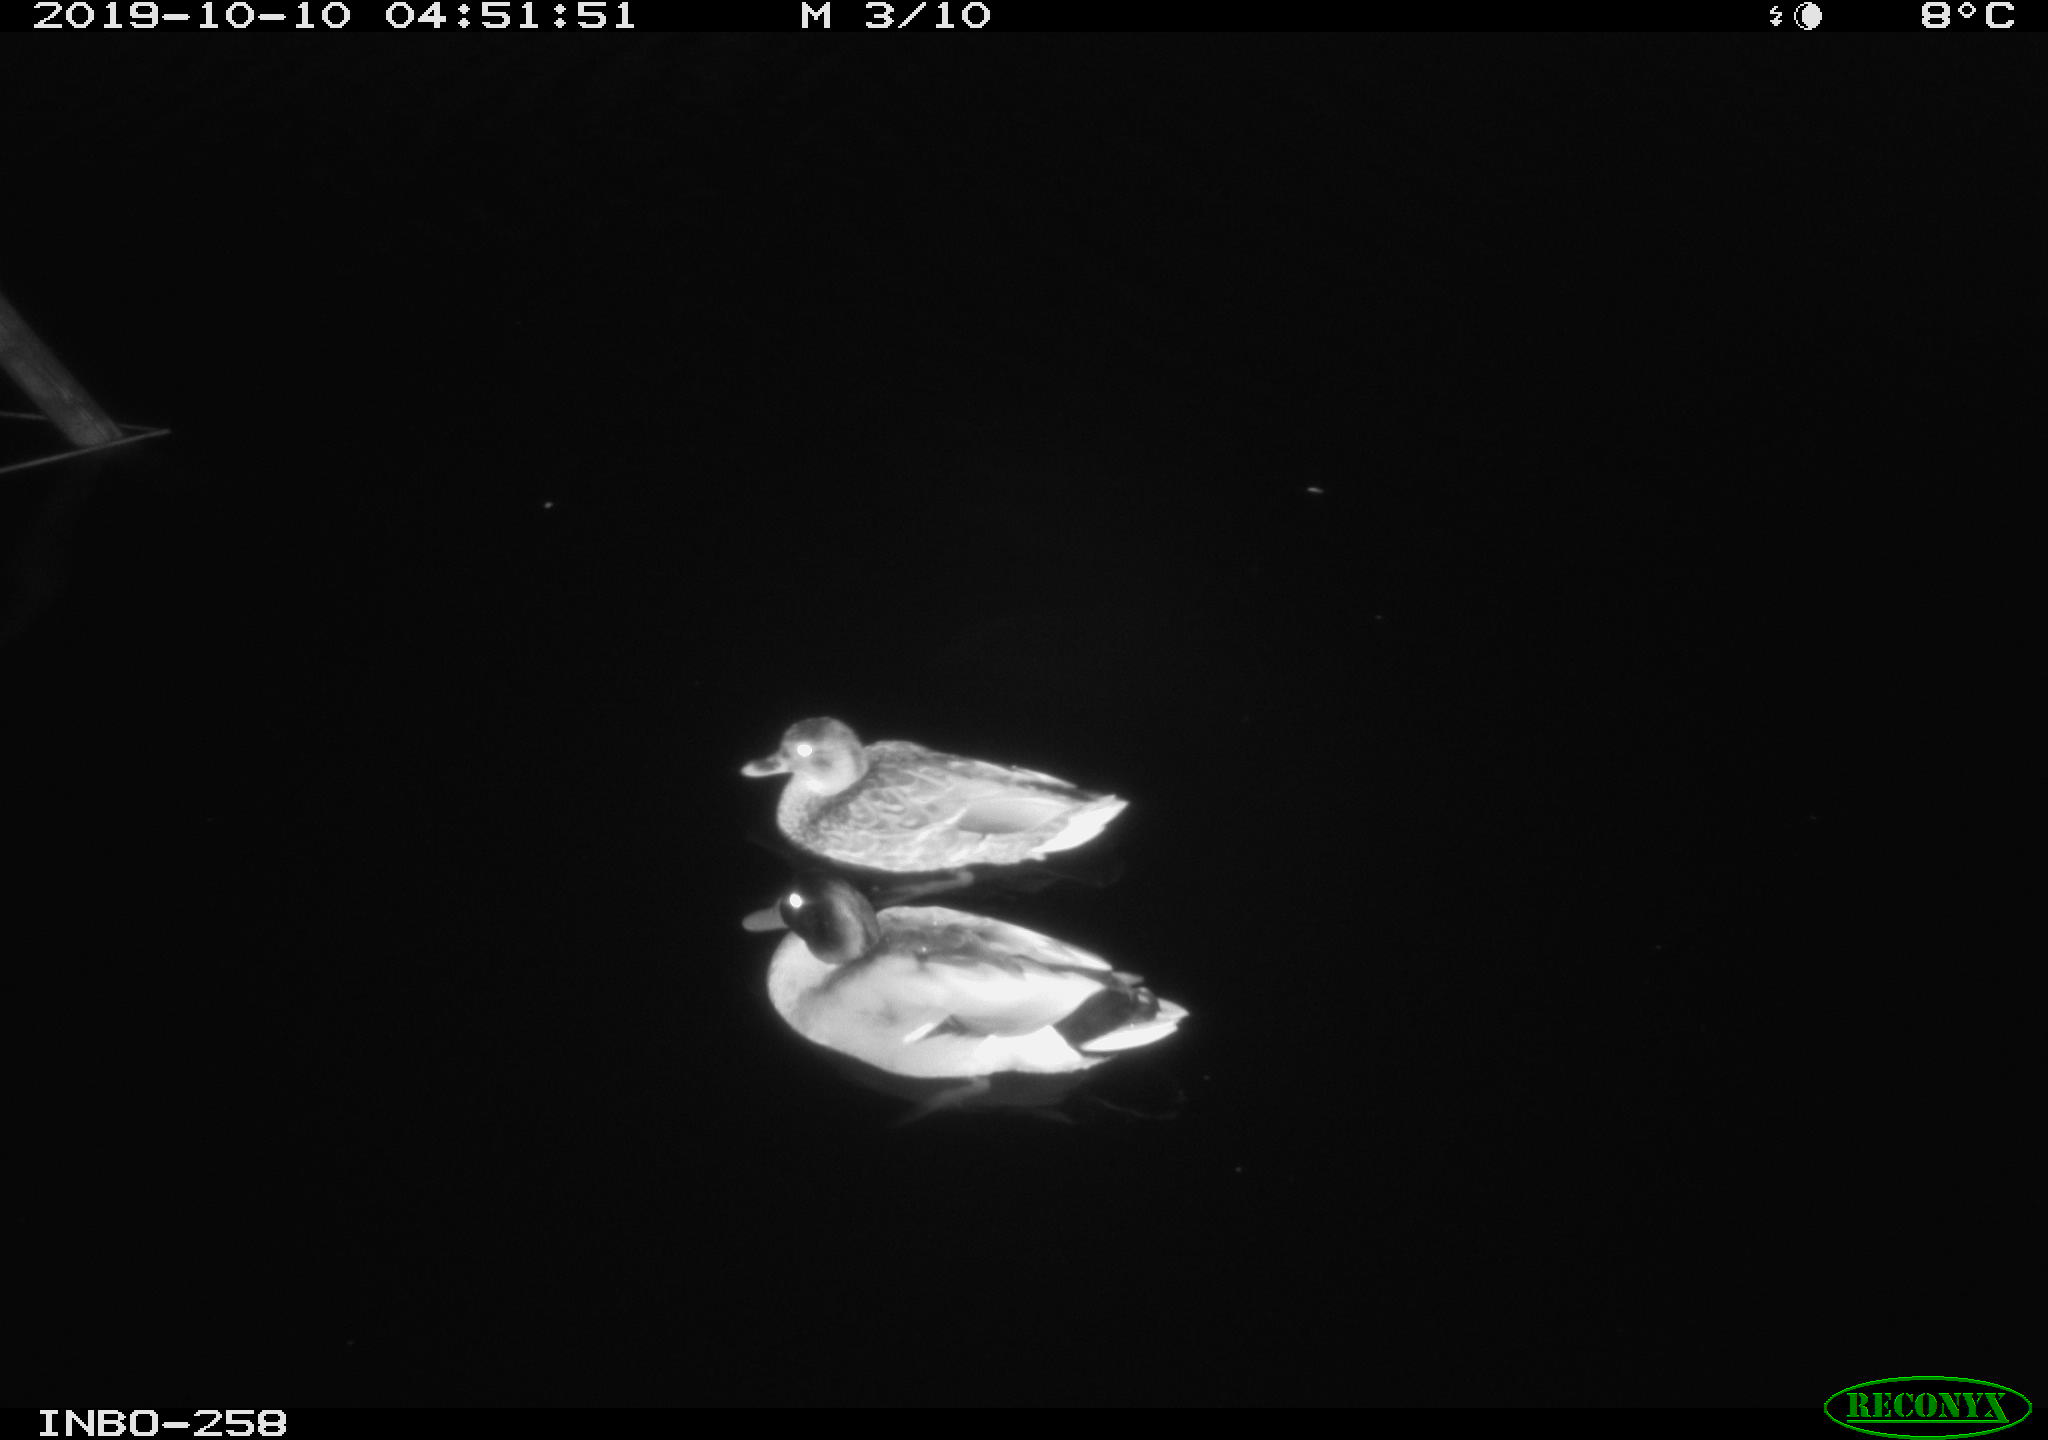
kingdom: Animalia
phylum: Chordata
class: Aves
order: Anseriformes
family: Anatidae
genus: Anas
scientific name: Anas platyrhynchos
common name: Mallard
